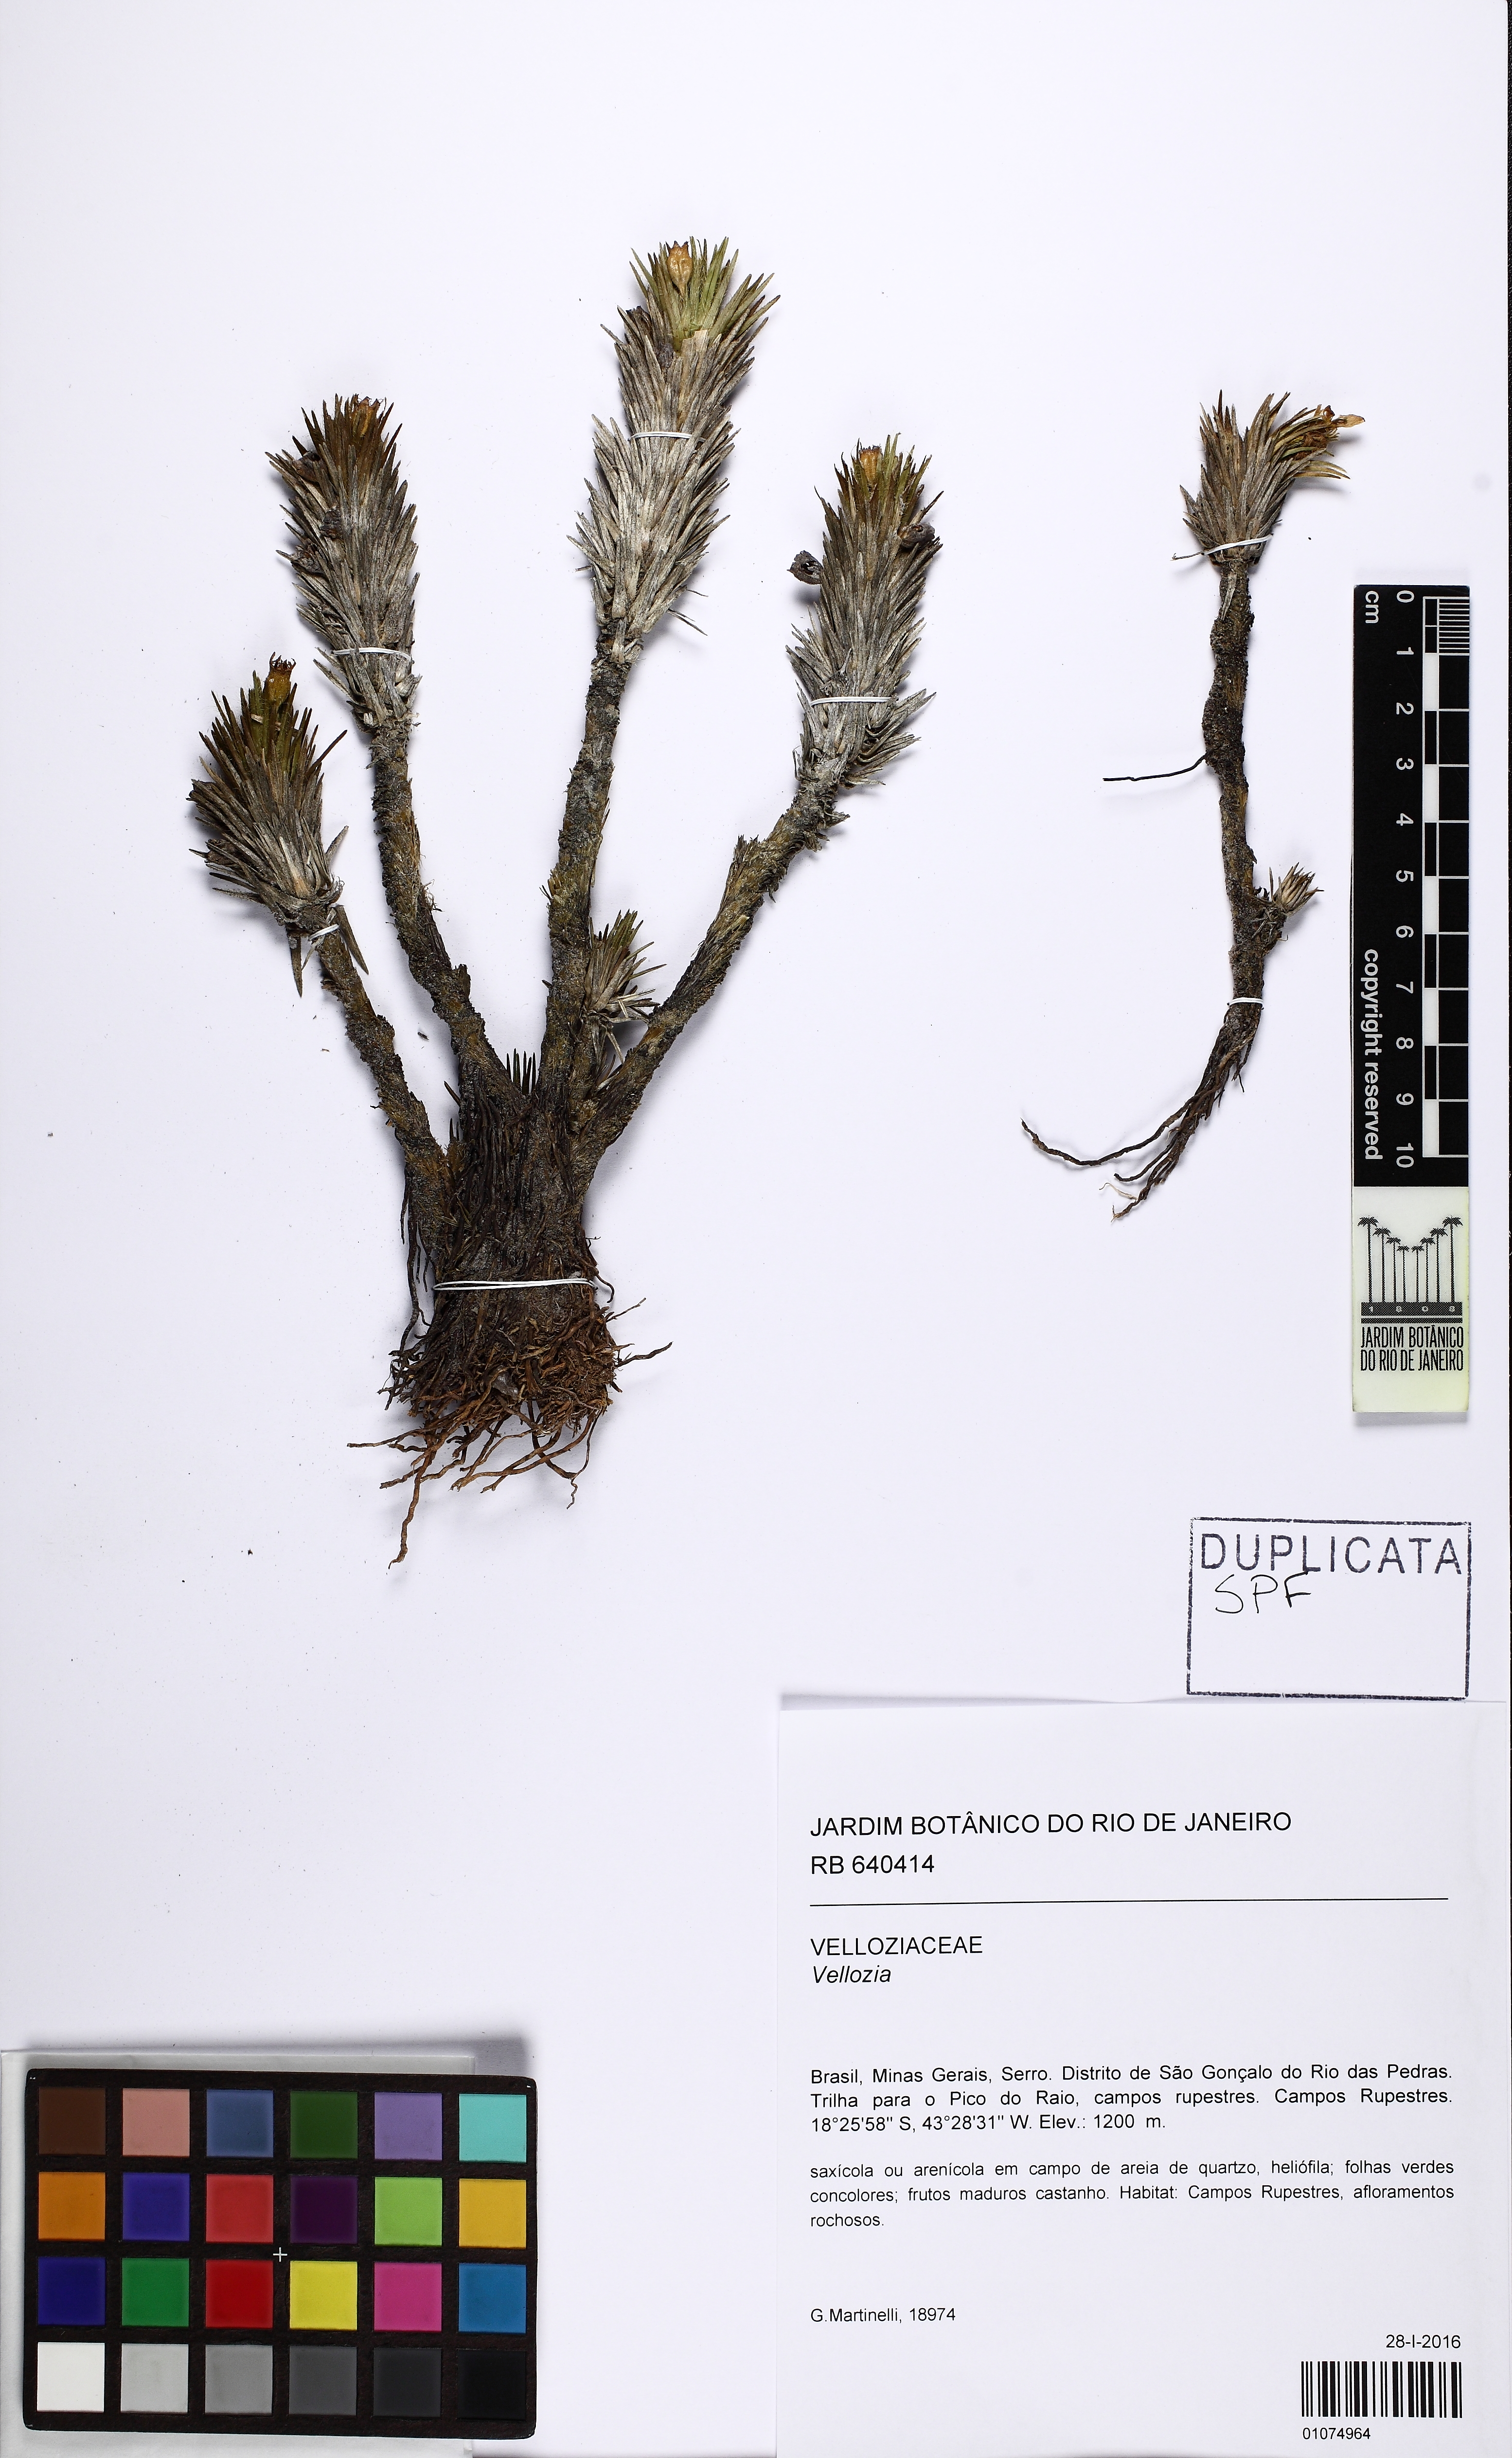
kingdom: Plantae
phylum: Tracheophyta
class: Liliopsida
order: Pandanales
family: Velloziaceae
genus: Vellozia
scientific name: Vellozia
